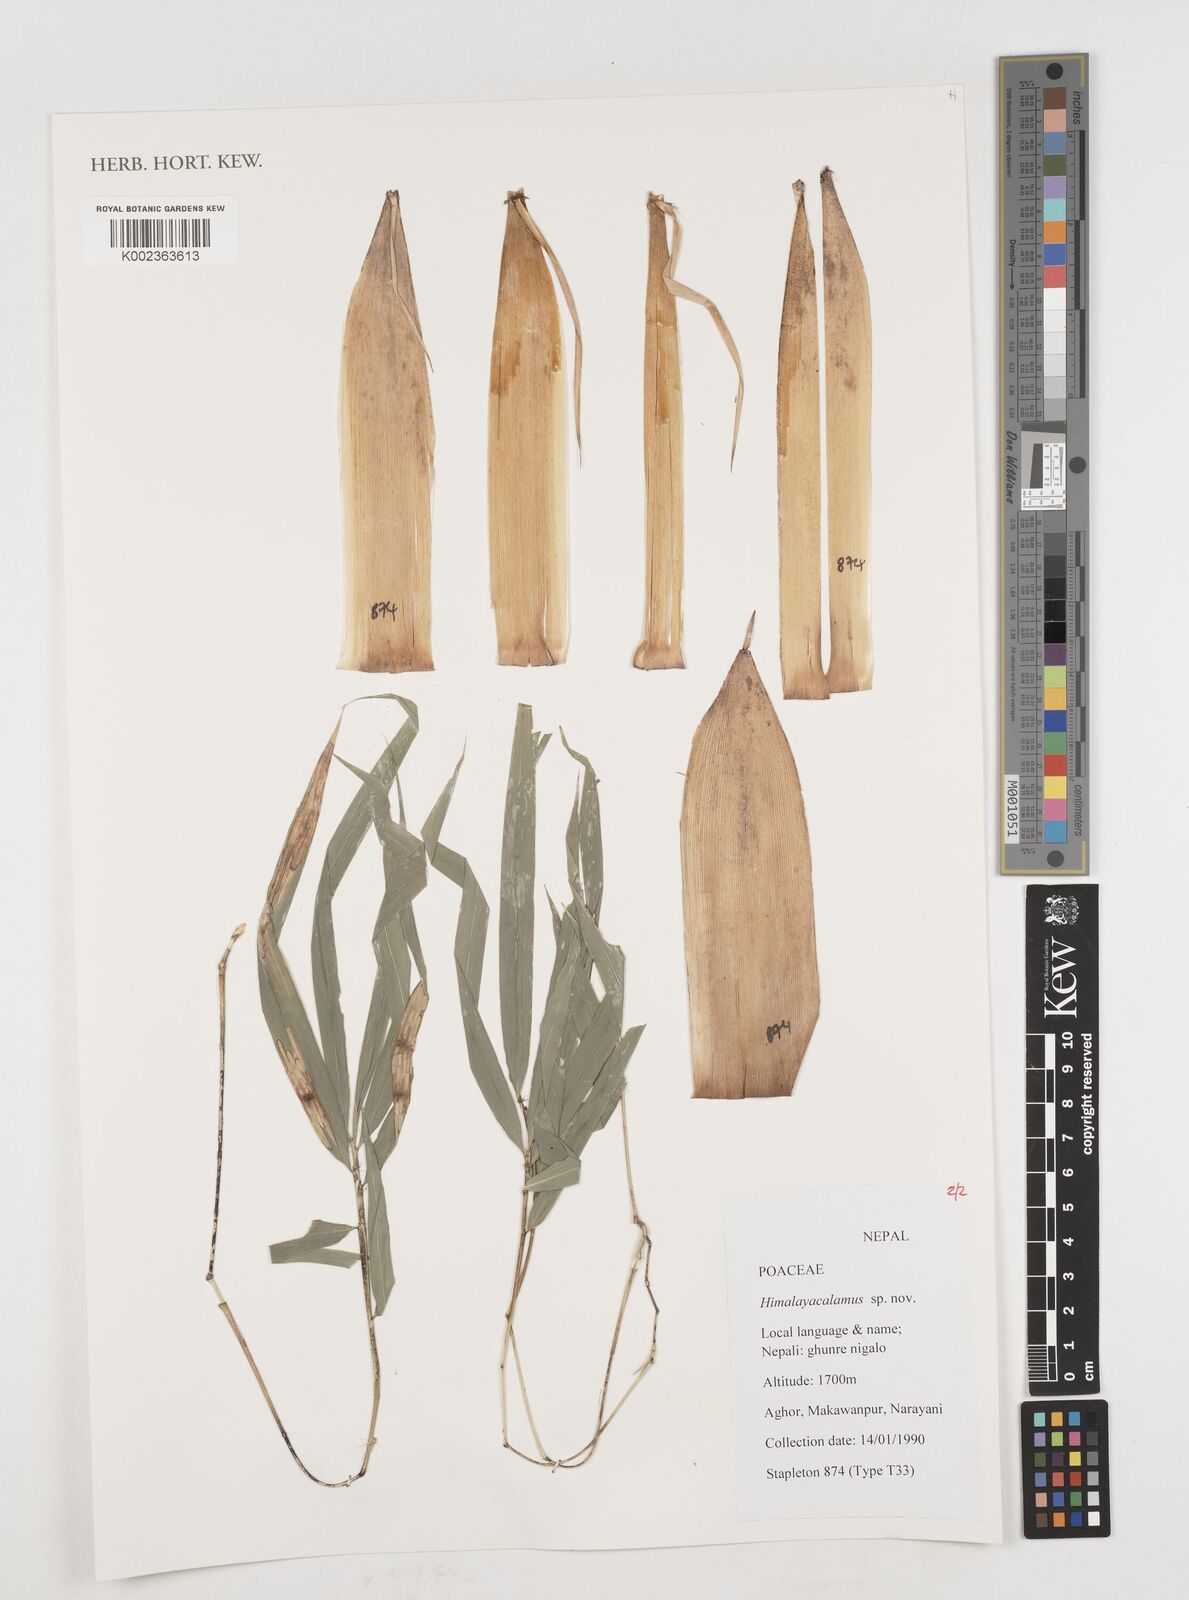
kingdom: Plantae
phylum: Tracheophyta
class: Liliopsida
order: Poales
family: Poaceae
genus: Himalayacalamus
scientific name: Himalayacalamus
